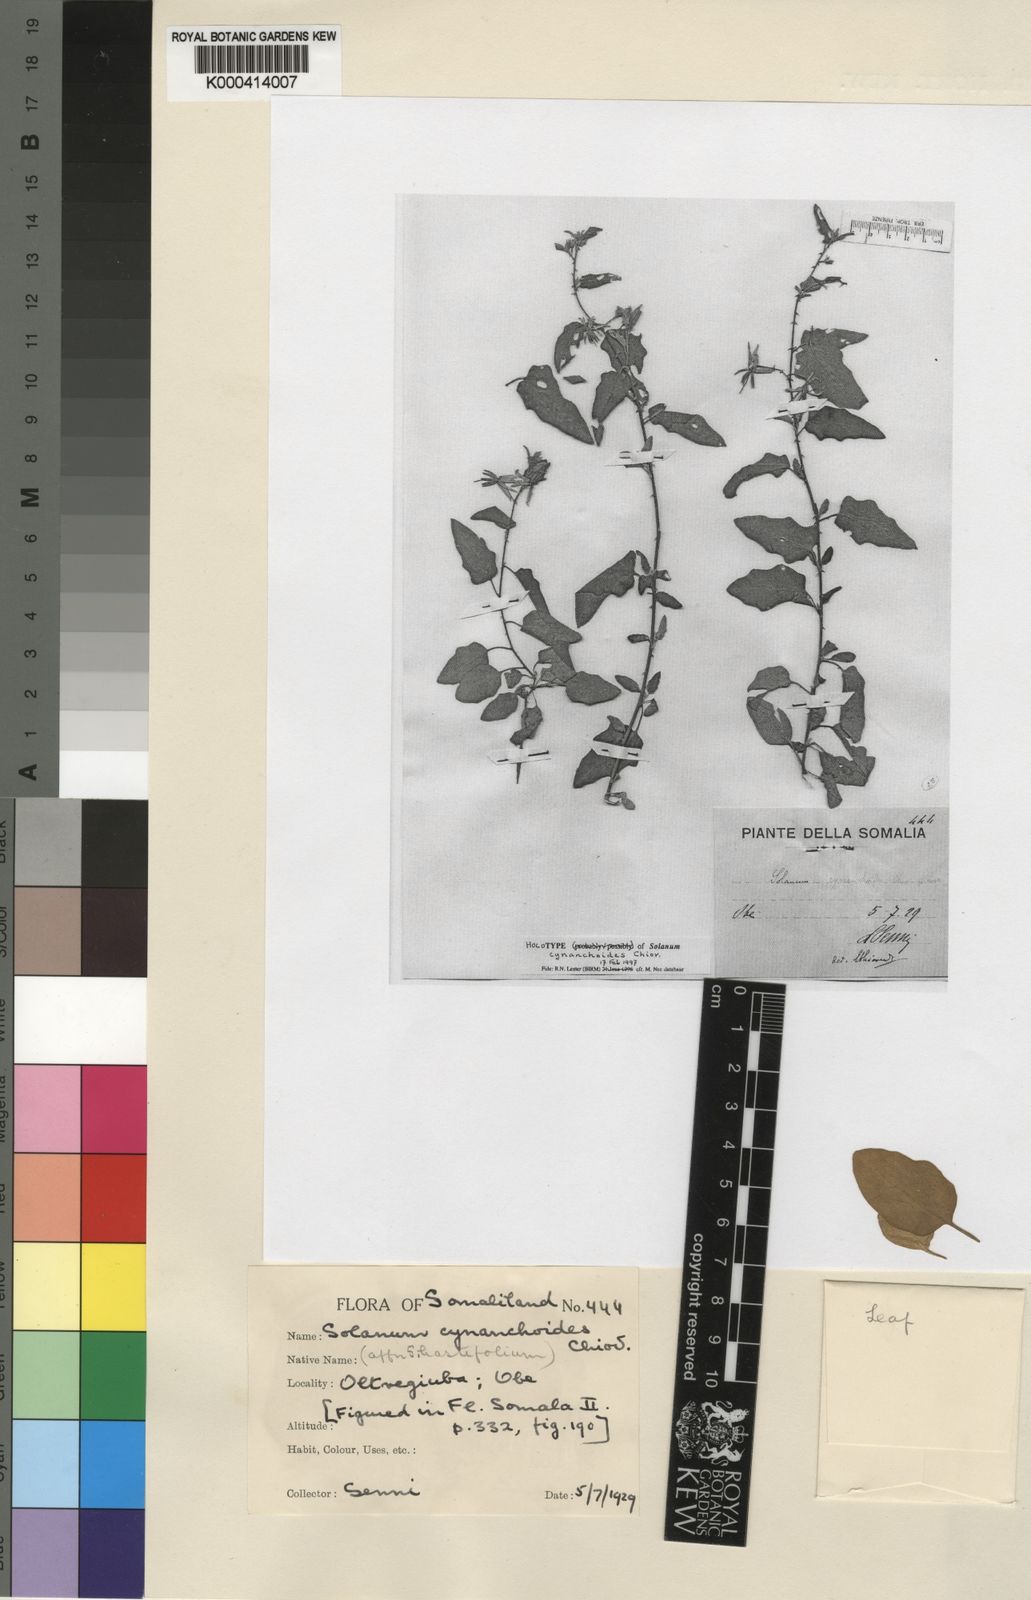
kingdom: Plantae
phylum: Tracheophyta
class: Magnoliopsida
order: Solanales
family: Solanaceae
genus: Solanum
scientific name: Solanum hastifolium
